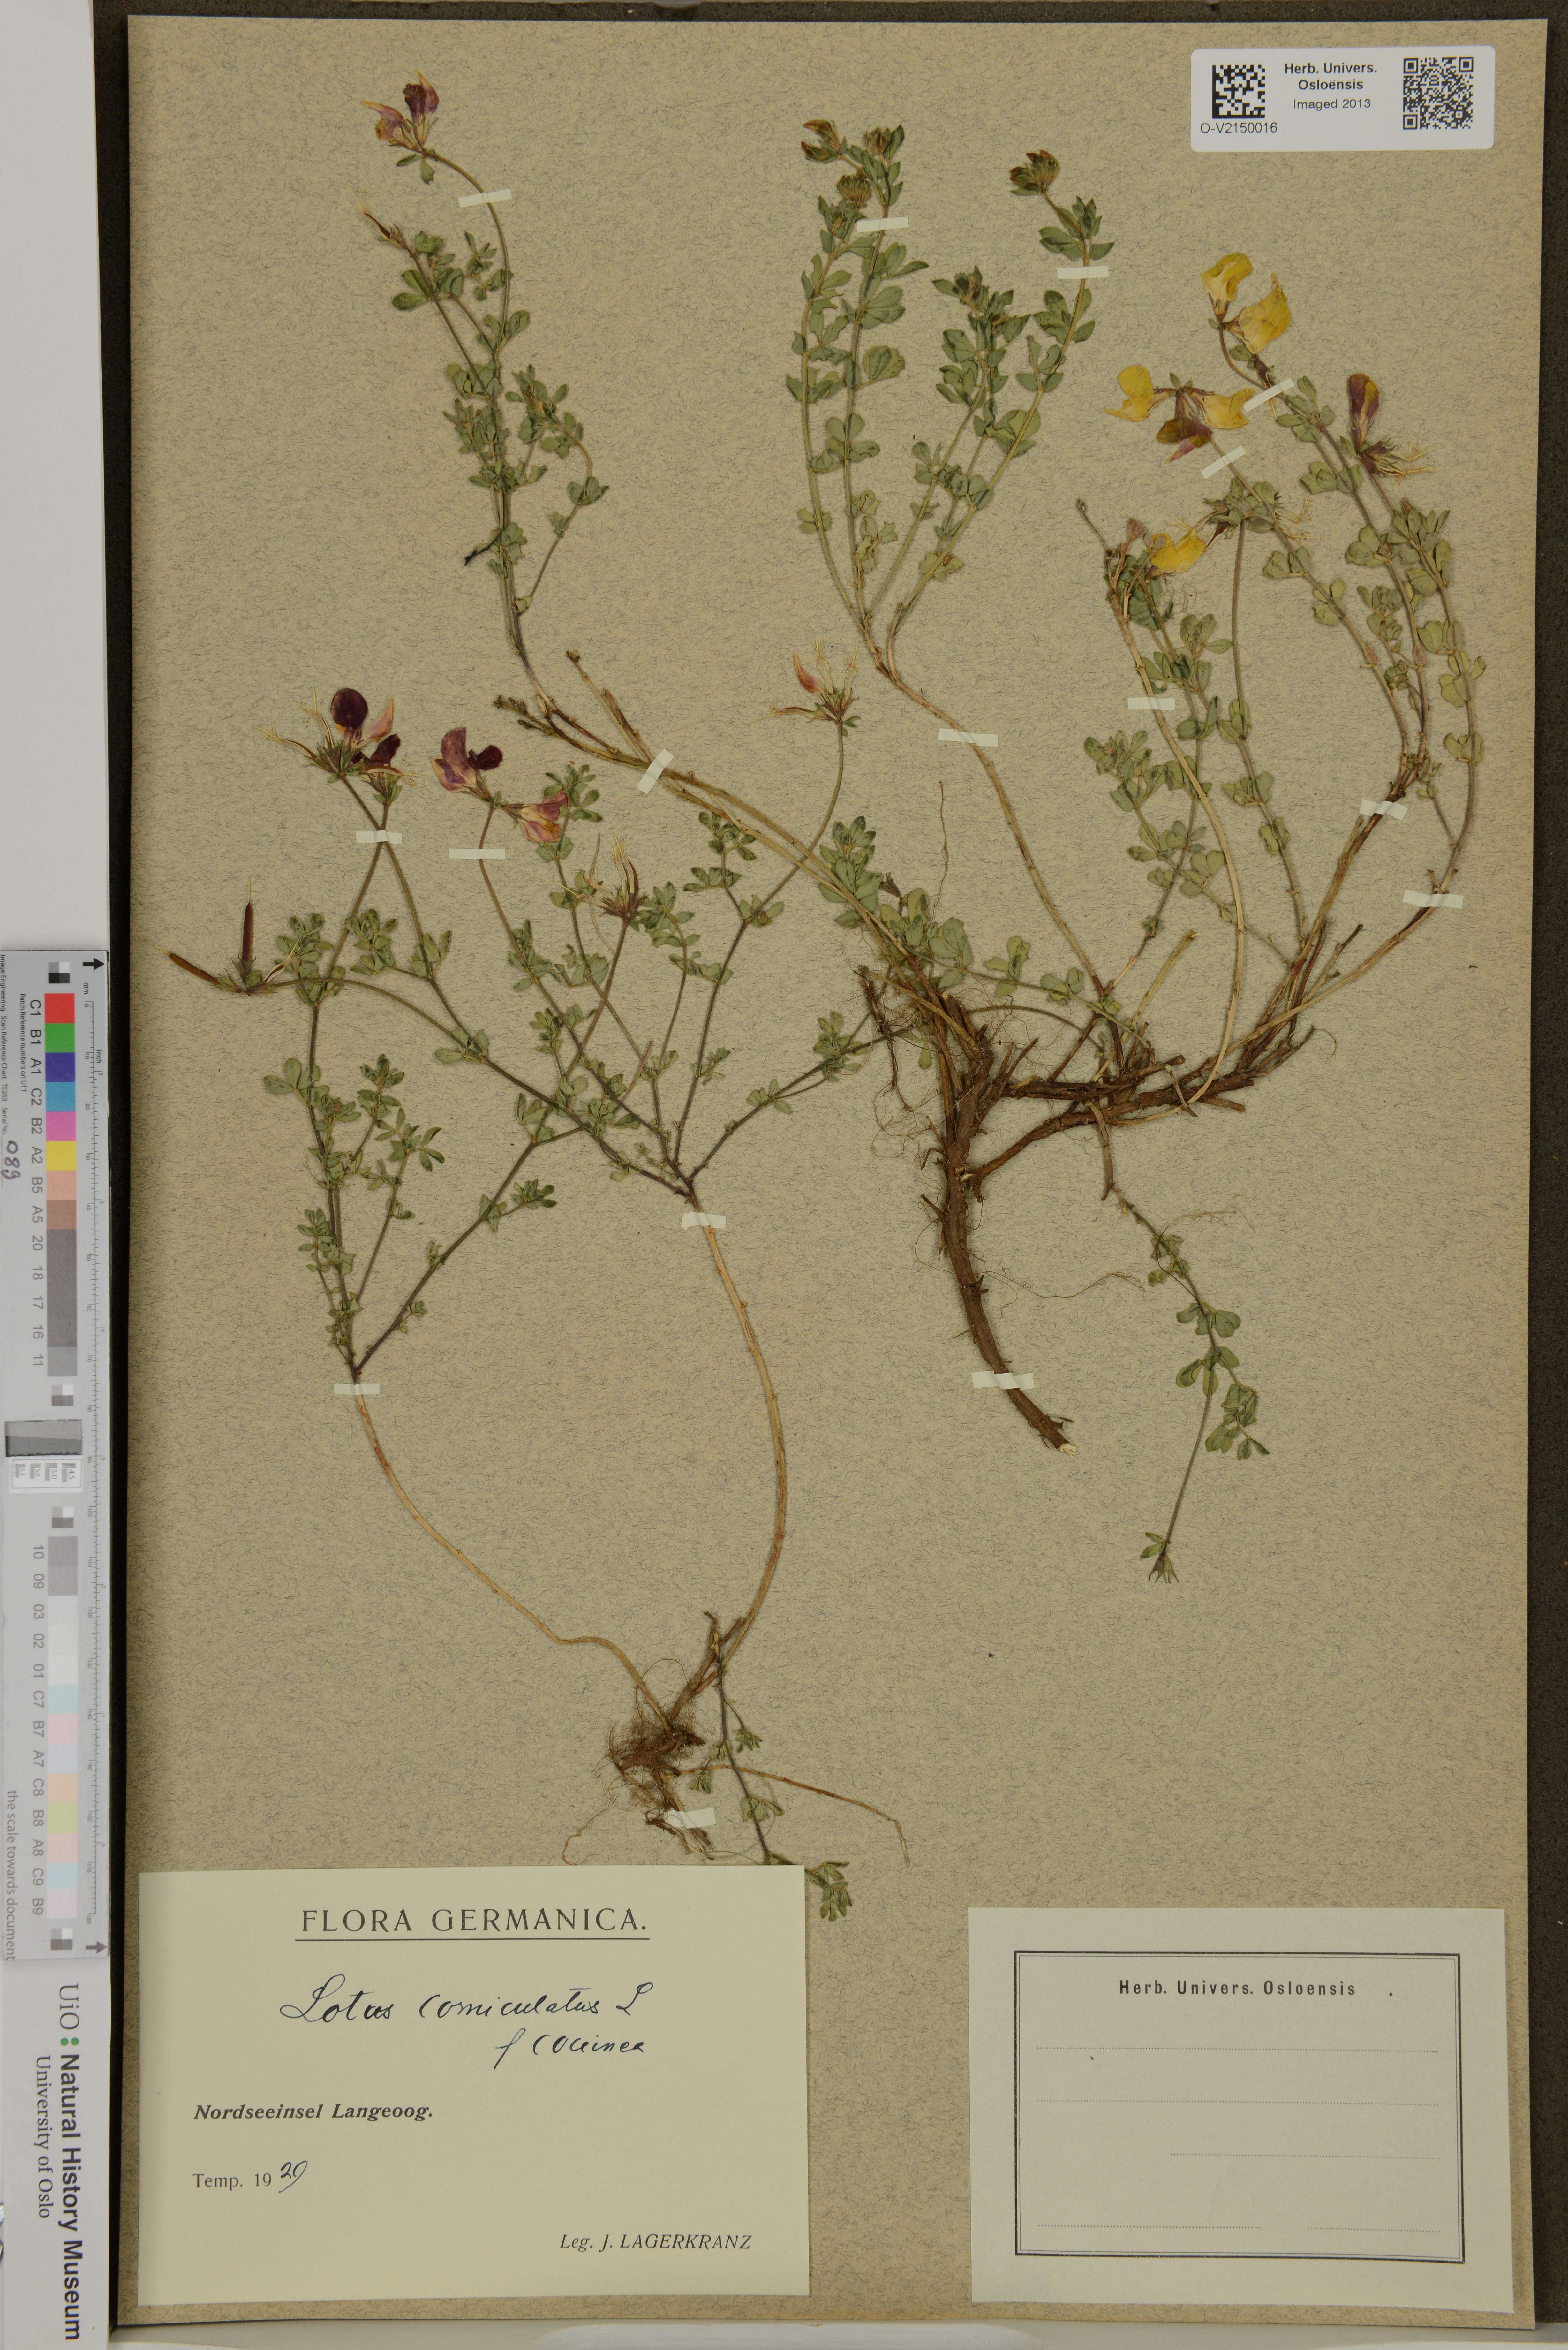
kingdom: Plantae
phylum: Tracheophyta
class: Magnoliopsida
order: Fabales
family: Fabaceae
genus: Lotus
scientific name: Lotus corniculatus
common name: Common bird's-foot-trefoil
